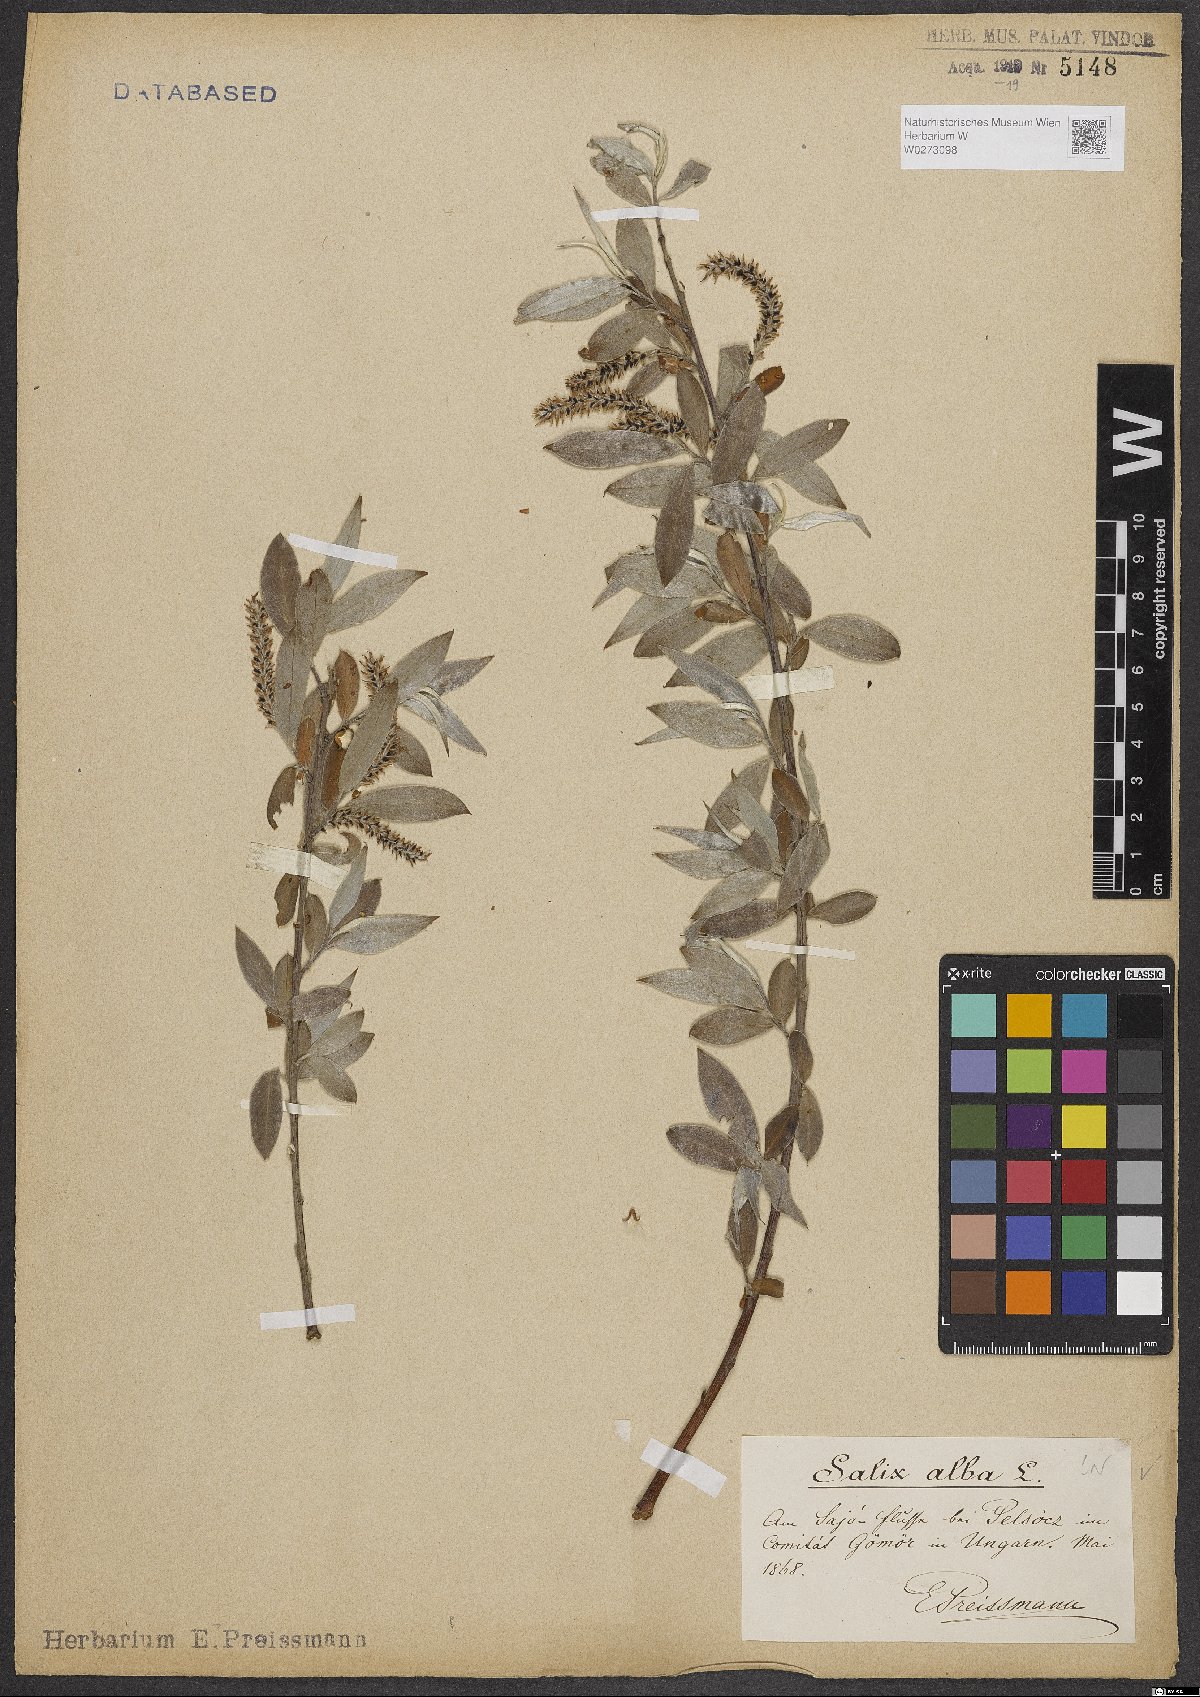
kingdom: Plantae
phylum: Tracheophyta
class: Magnoliopsida
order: Malpighiales
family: Salicaceae
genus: Salix
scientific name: Salix alba
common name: White willow
